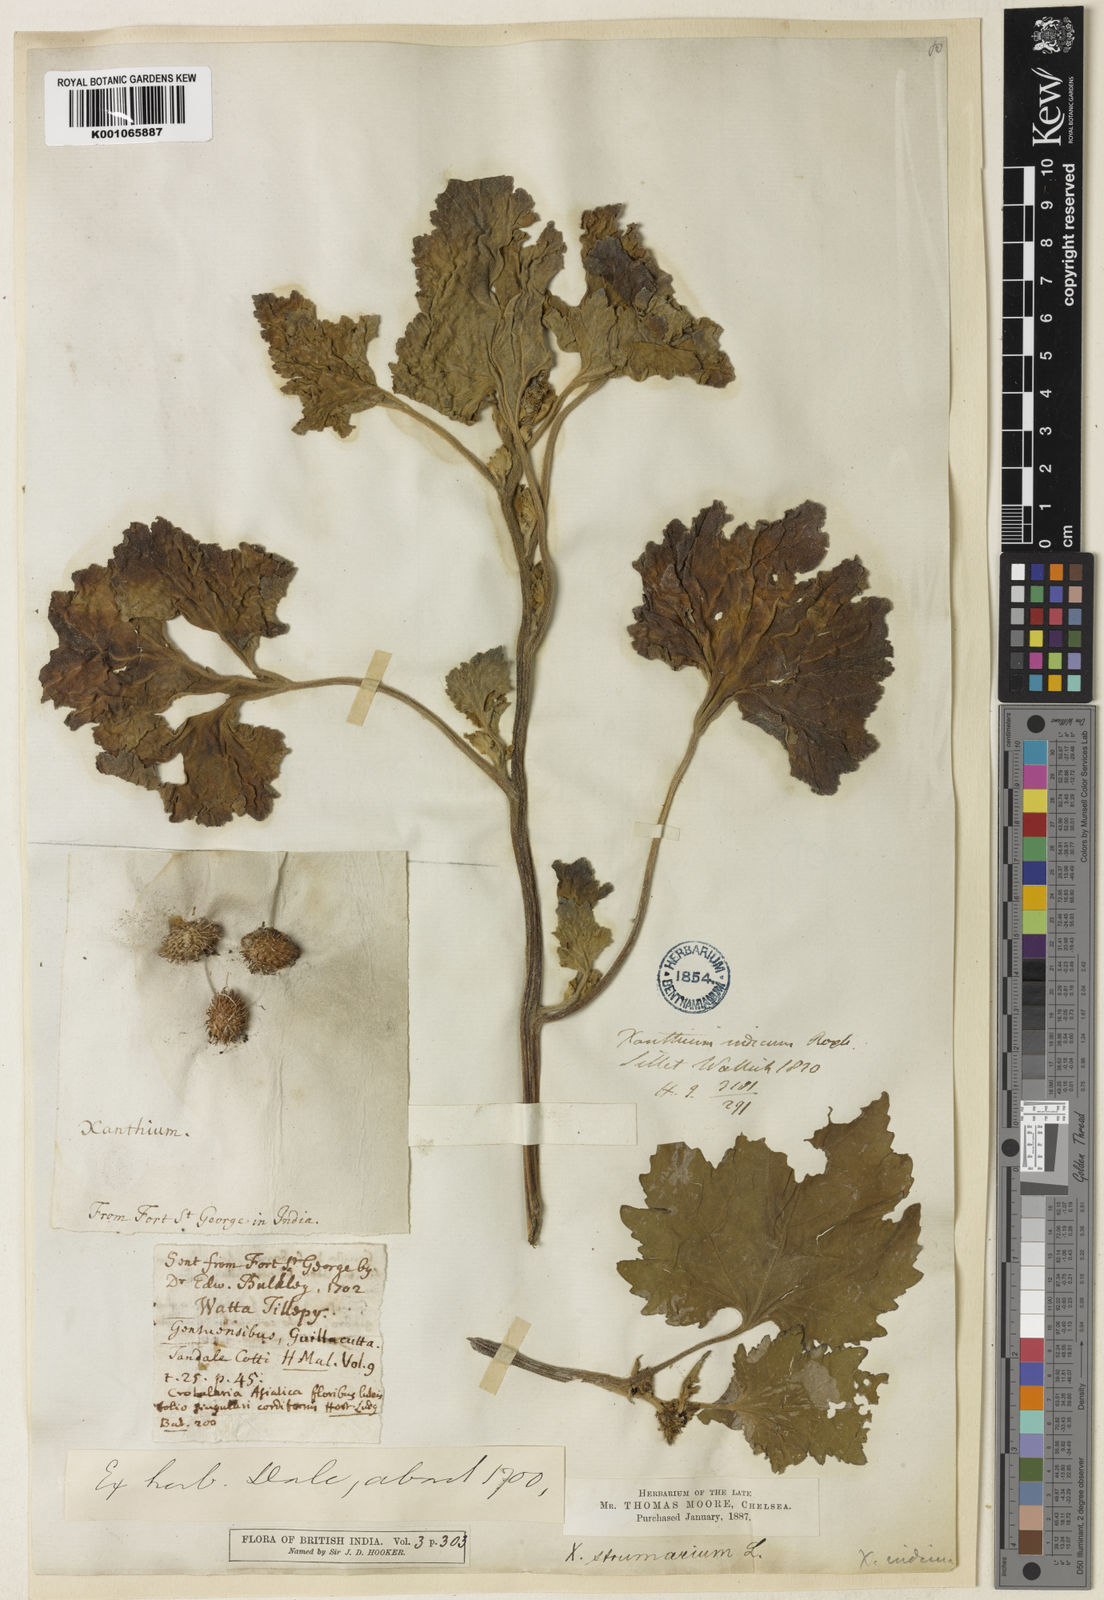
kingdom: Plantae
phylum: Tracheophyta
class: Magnoliopsida
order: Asterales
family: Asteraceae
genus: Xanthium
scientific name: Xanthium strumarium
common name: Rough cocklebur
